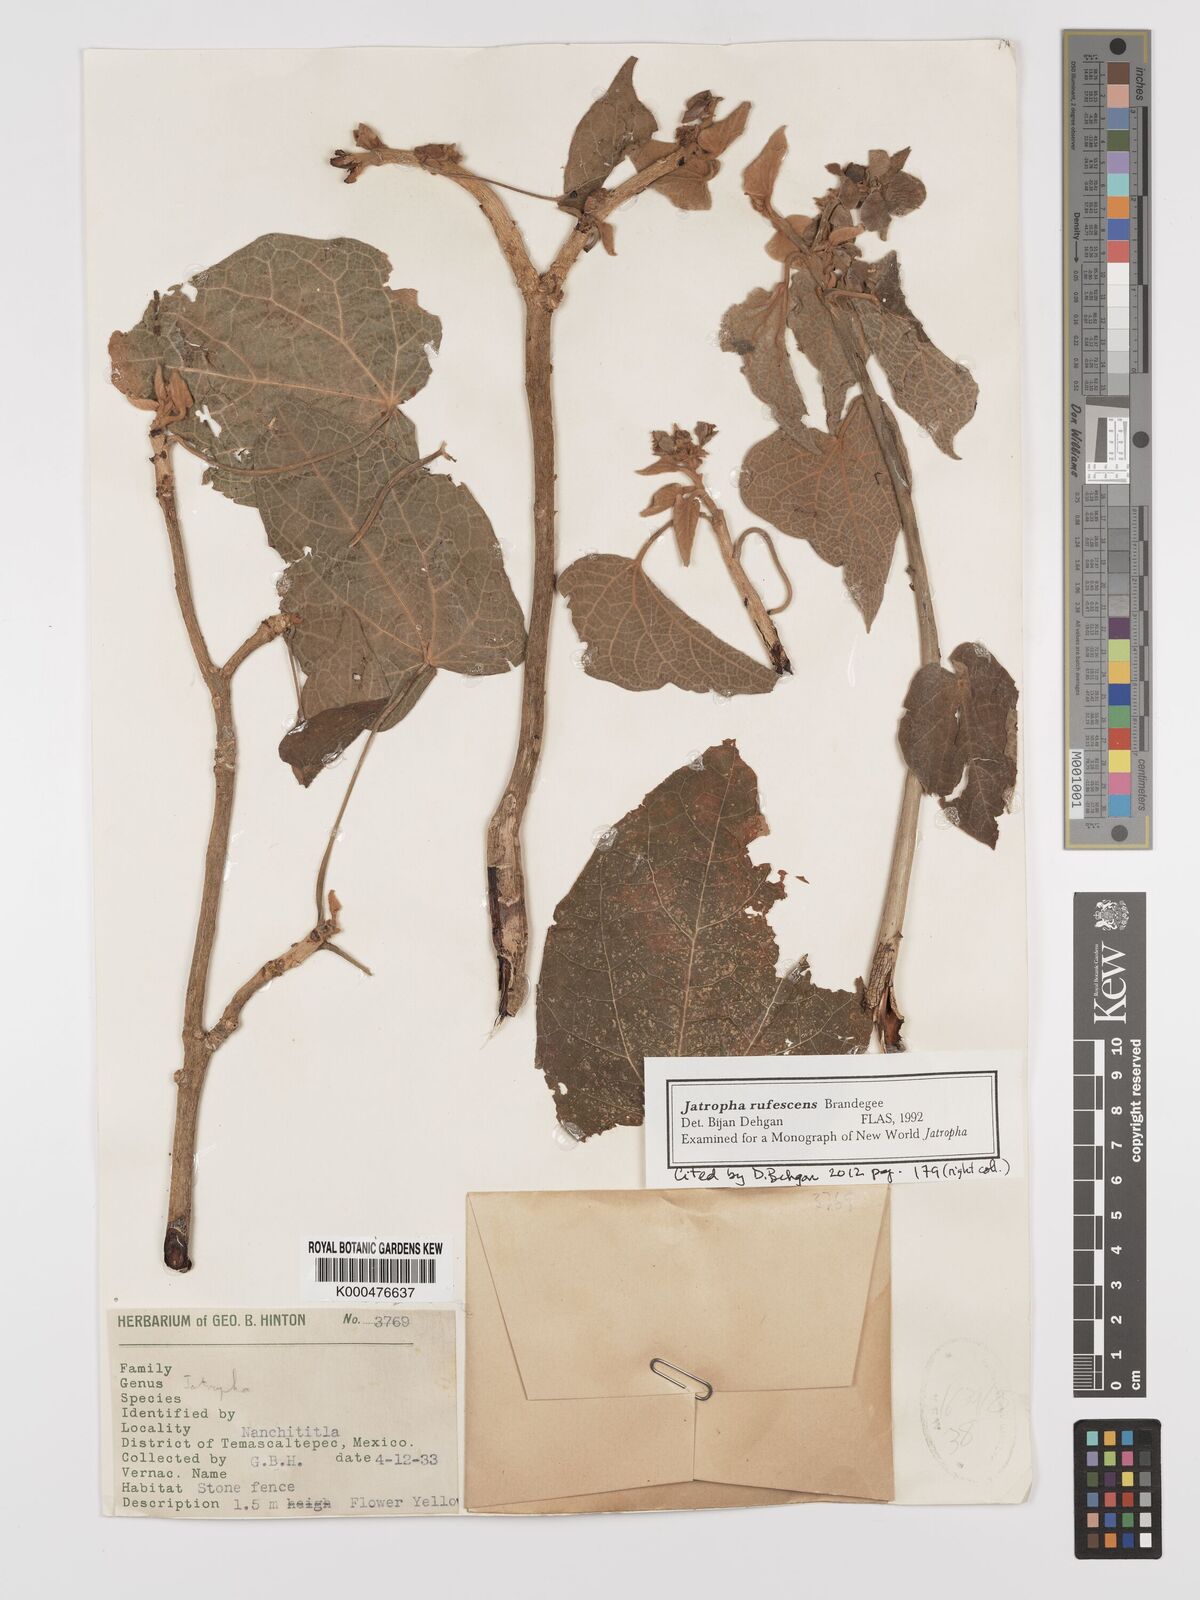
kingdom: Plantae
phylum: Tracheophyta
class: Magnoliopsida
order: Malpighiales
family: Euphorbiaceae
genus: Jatropha
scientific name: Jatropha
